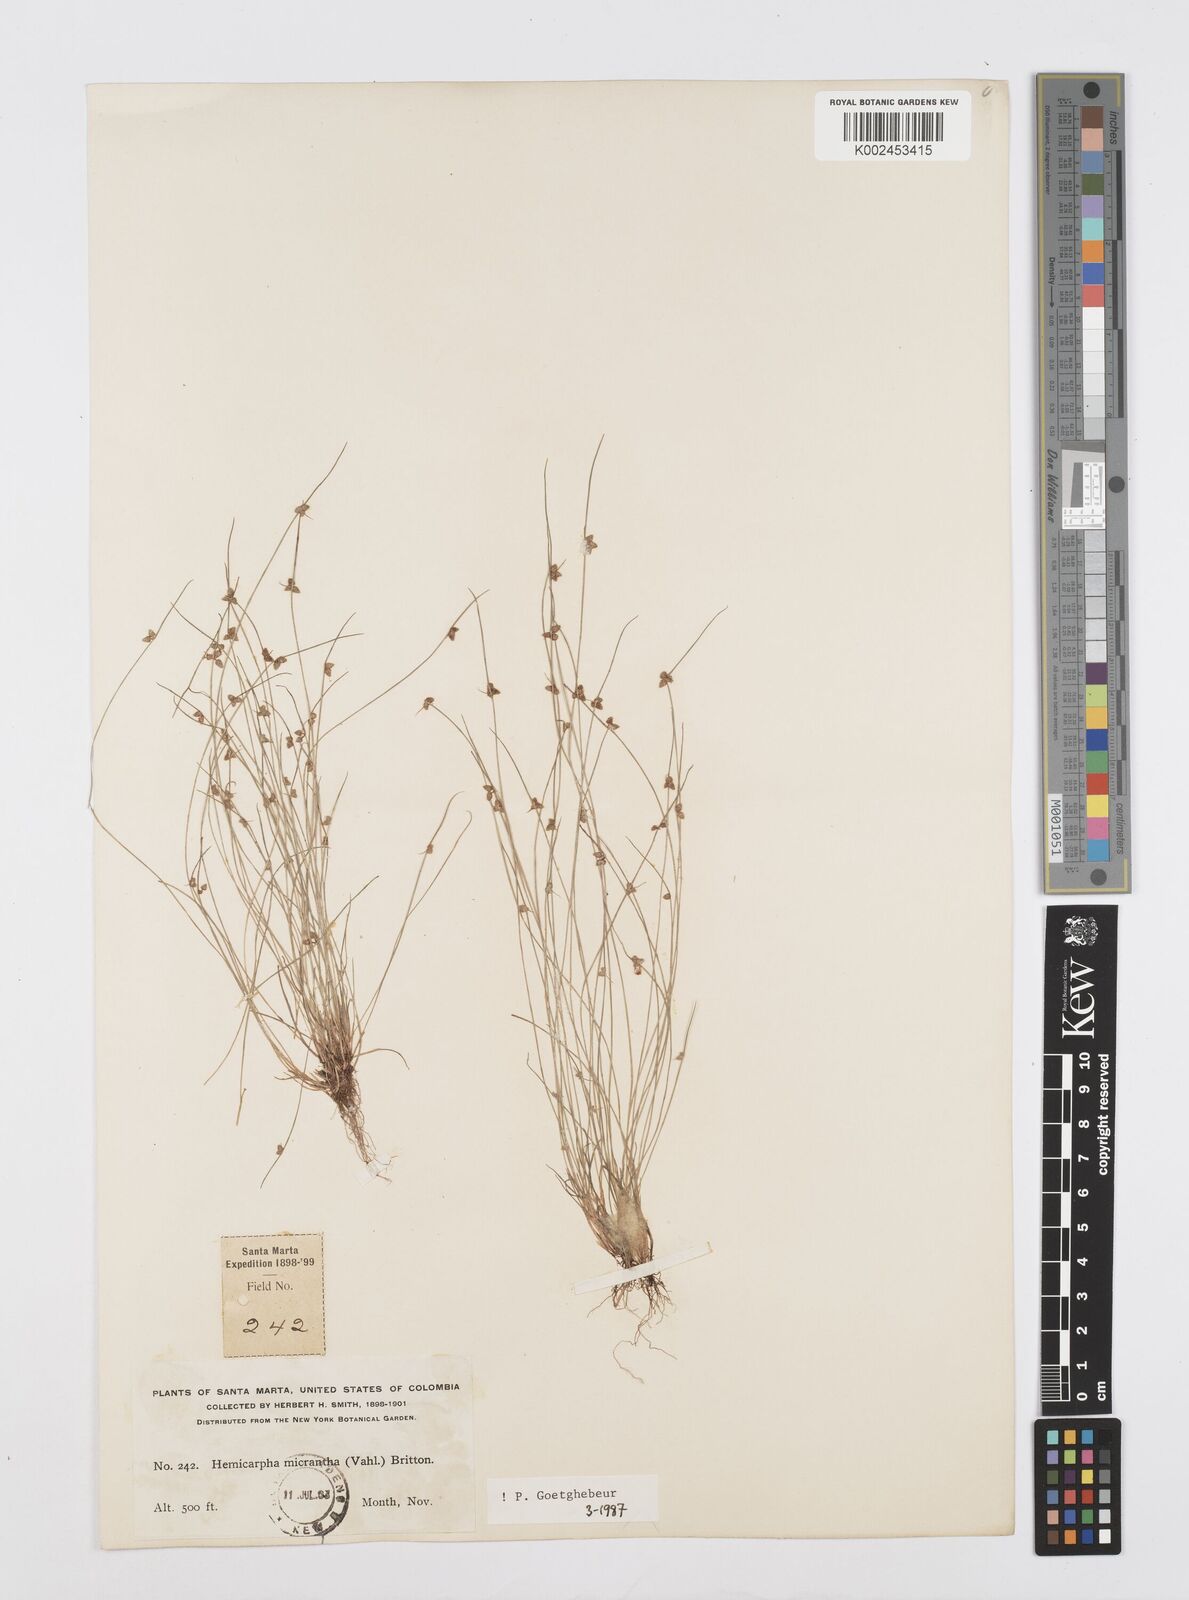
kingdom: Plantae
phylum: Tracheophyta
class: Liliopsida
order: Poales
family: Cyperaceae
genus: Cyperus
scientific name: Cyperus dentatus
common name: Dentate umbrella sedge
